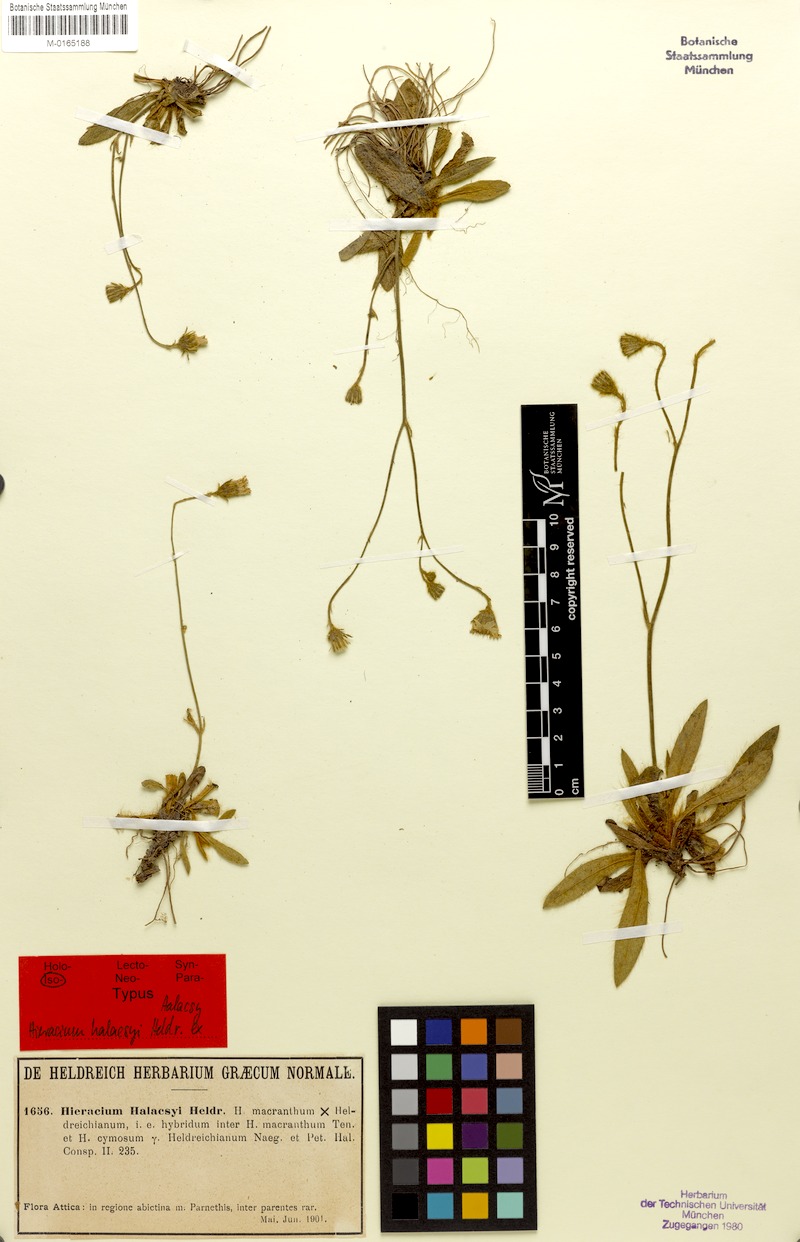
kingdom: Plantae
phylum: Tracheophyta
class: Magnoliopsida
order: Asterales
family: Asteraceae
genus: Pilosella
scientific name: Pilosella halacsyi
